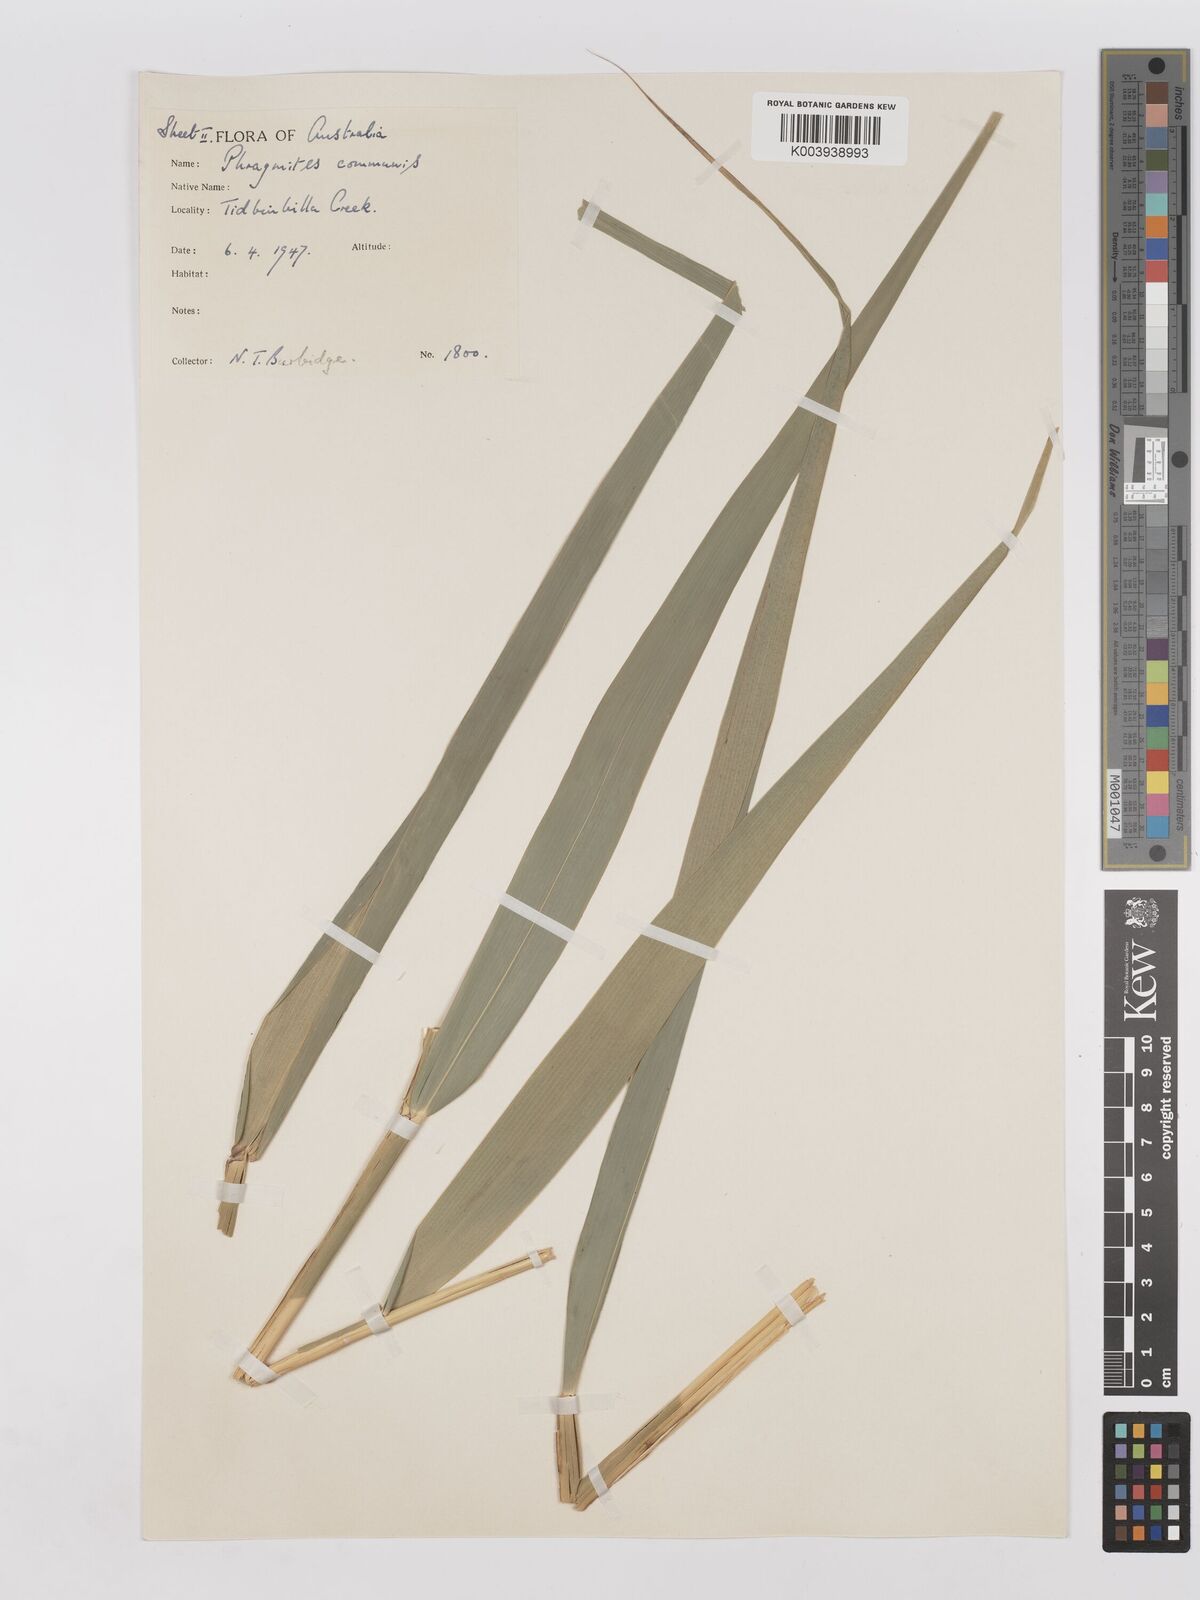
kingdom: Plantae
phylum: Tracheophyta
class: Liliopsida
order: Poales
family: Poaceae
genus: Phragmites
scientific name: Phragmites australis
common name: Common reed
